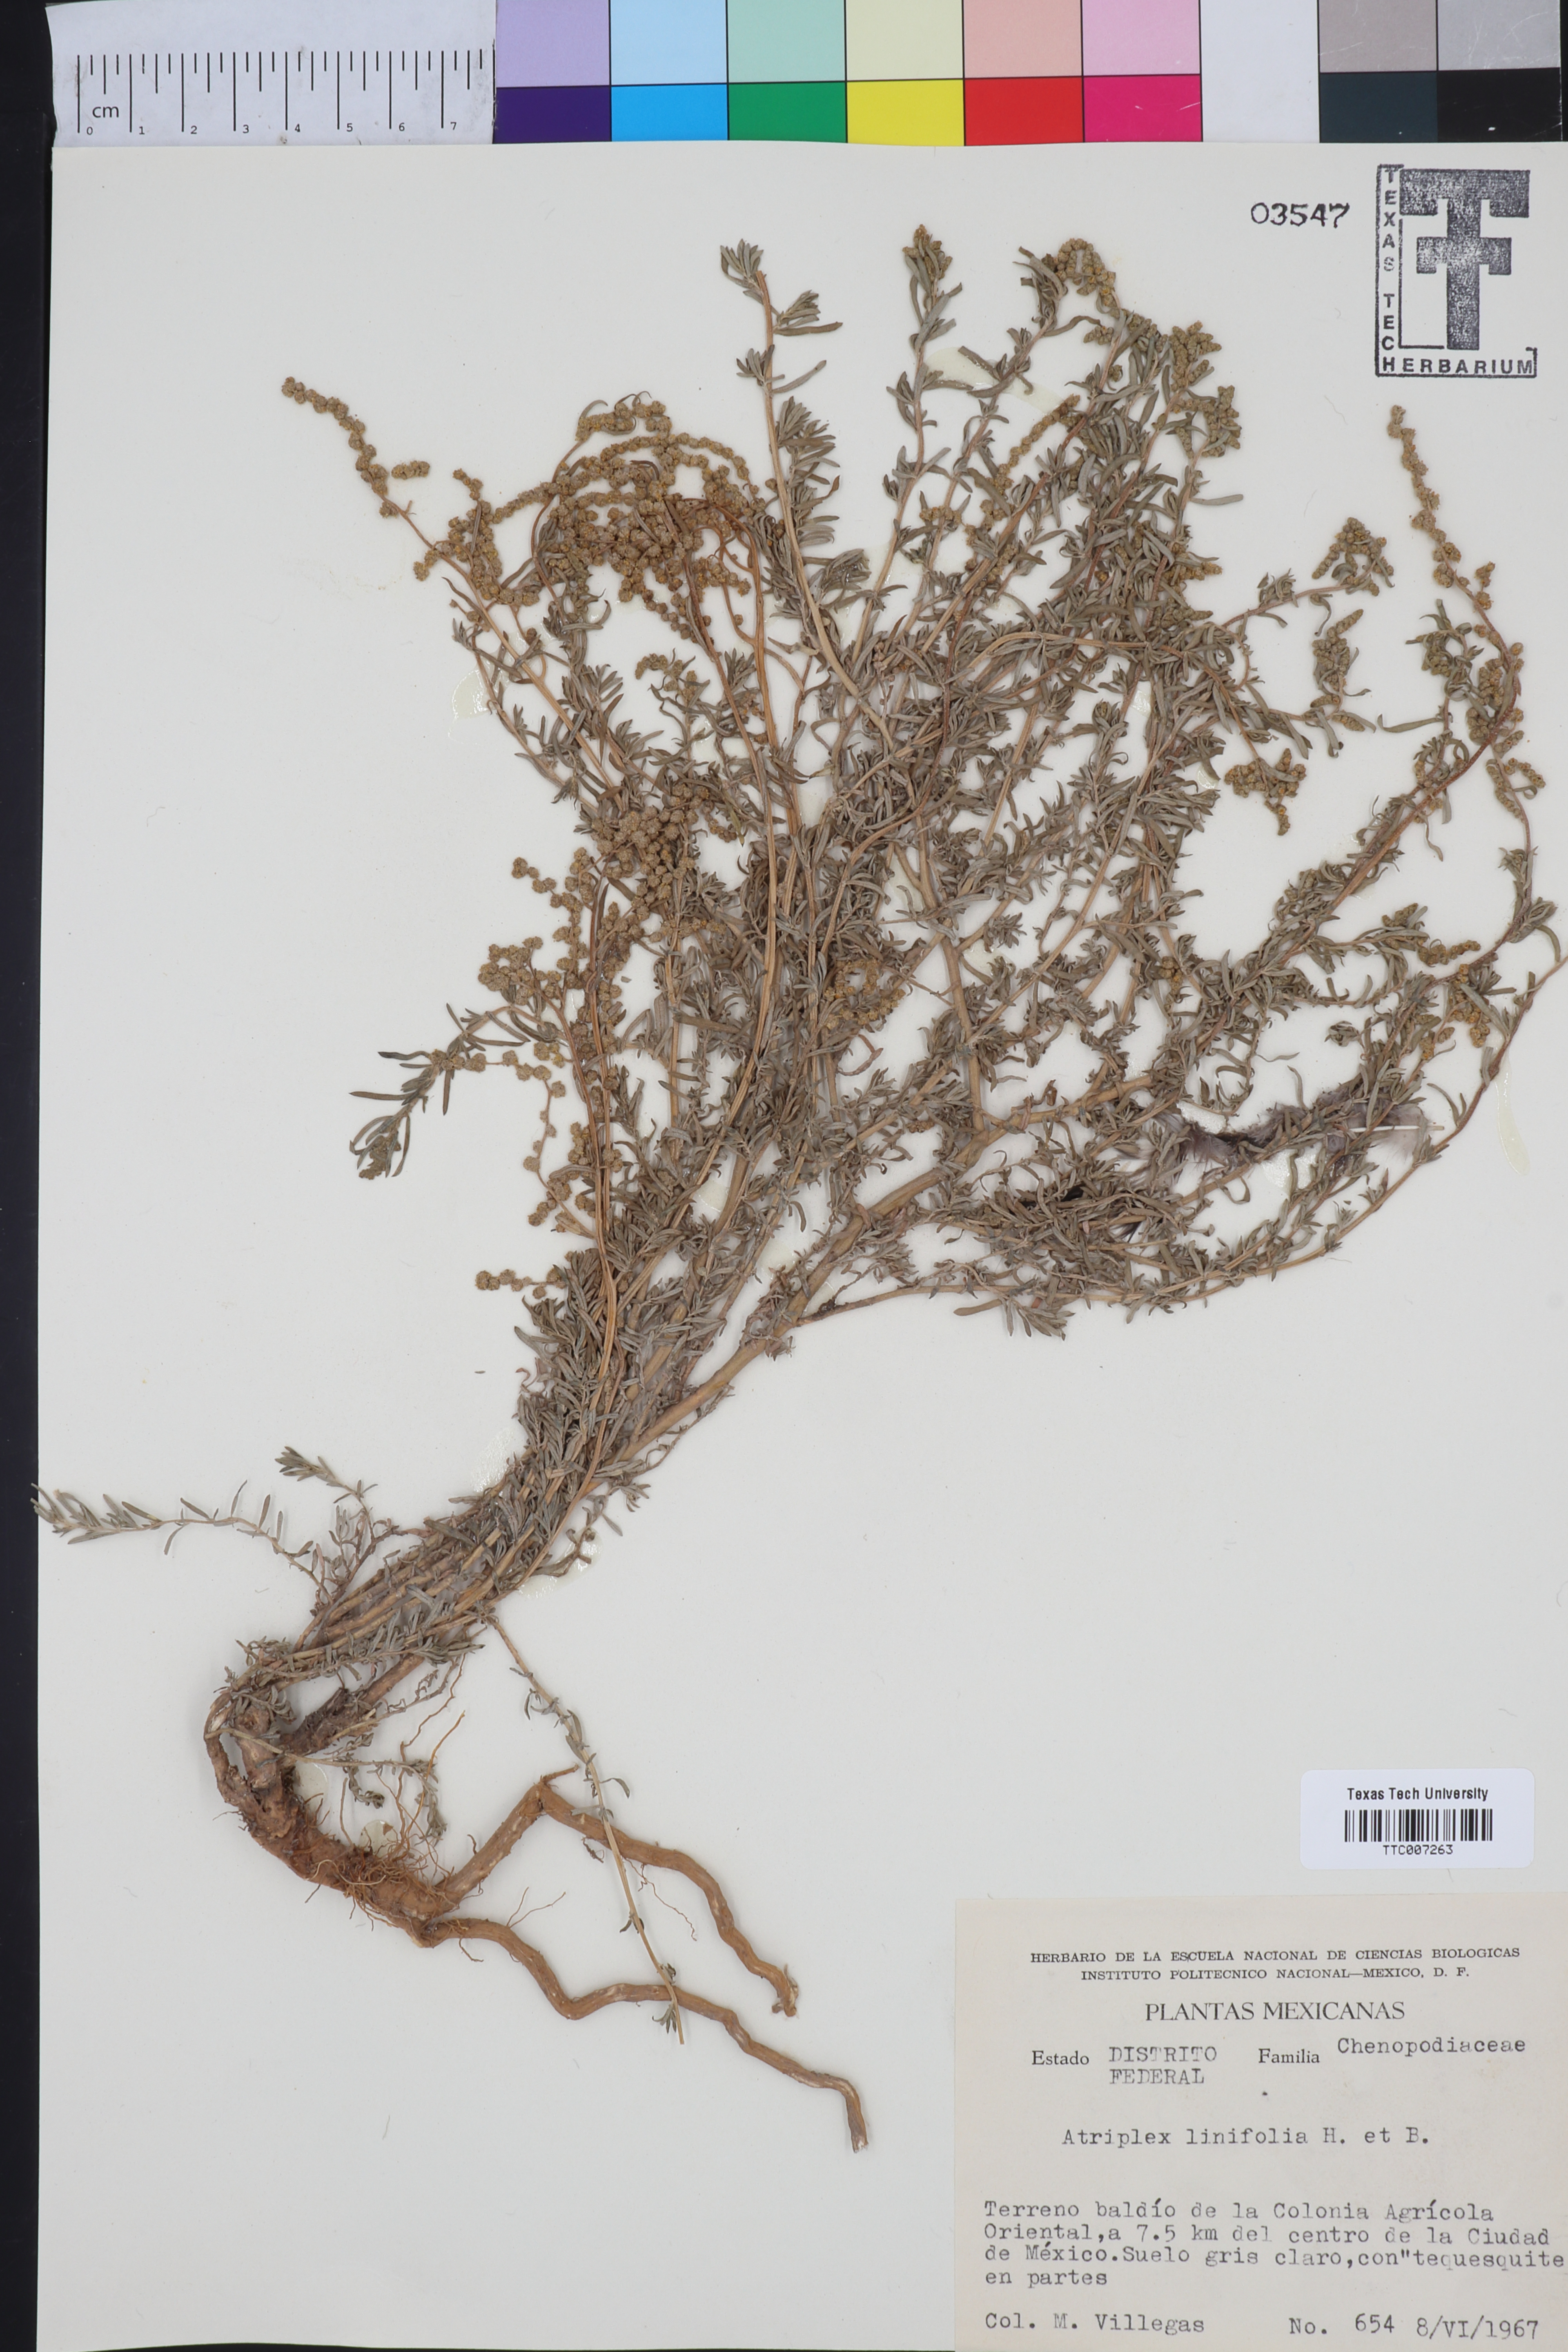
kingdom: Plantae
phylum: Tracheophyta
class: Magnoliopsida
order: Caryophyllales
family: Amaranthaceae
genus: Atriplex
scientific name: Atriplex linifolia
